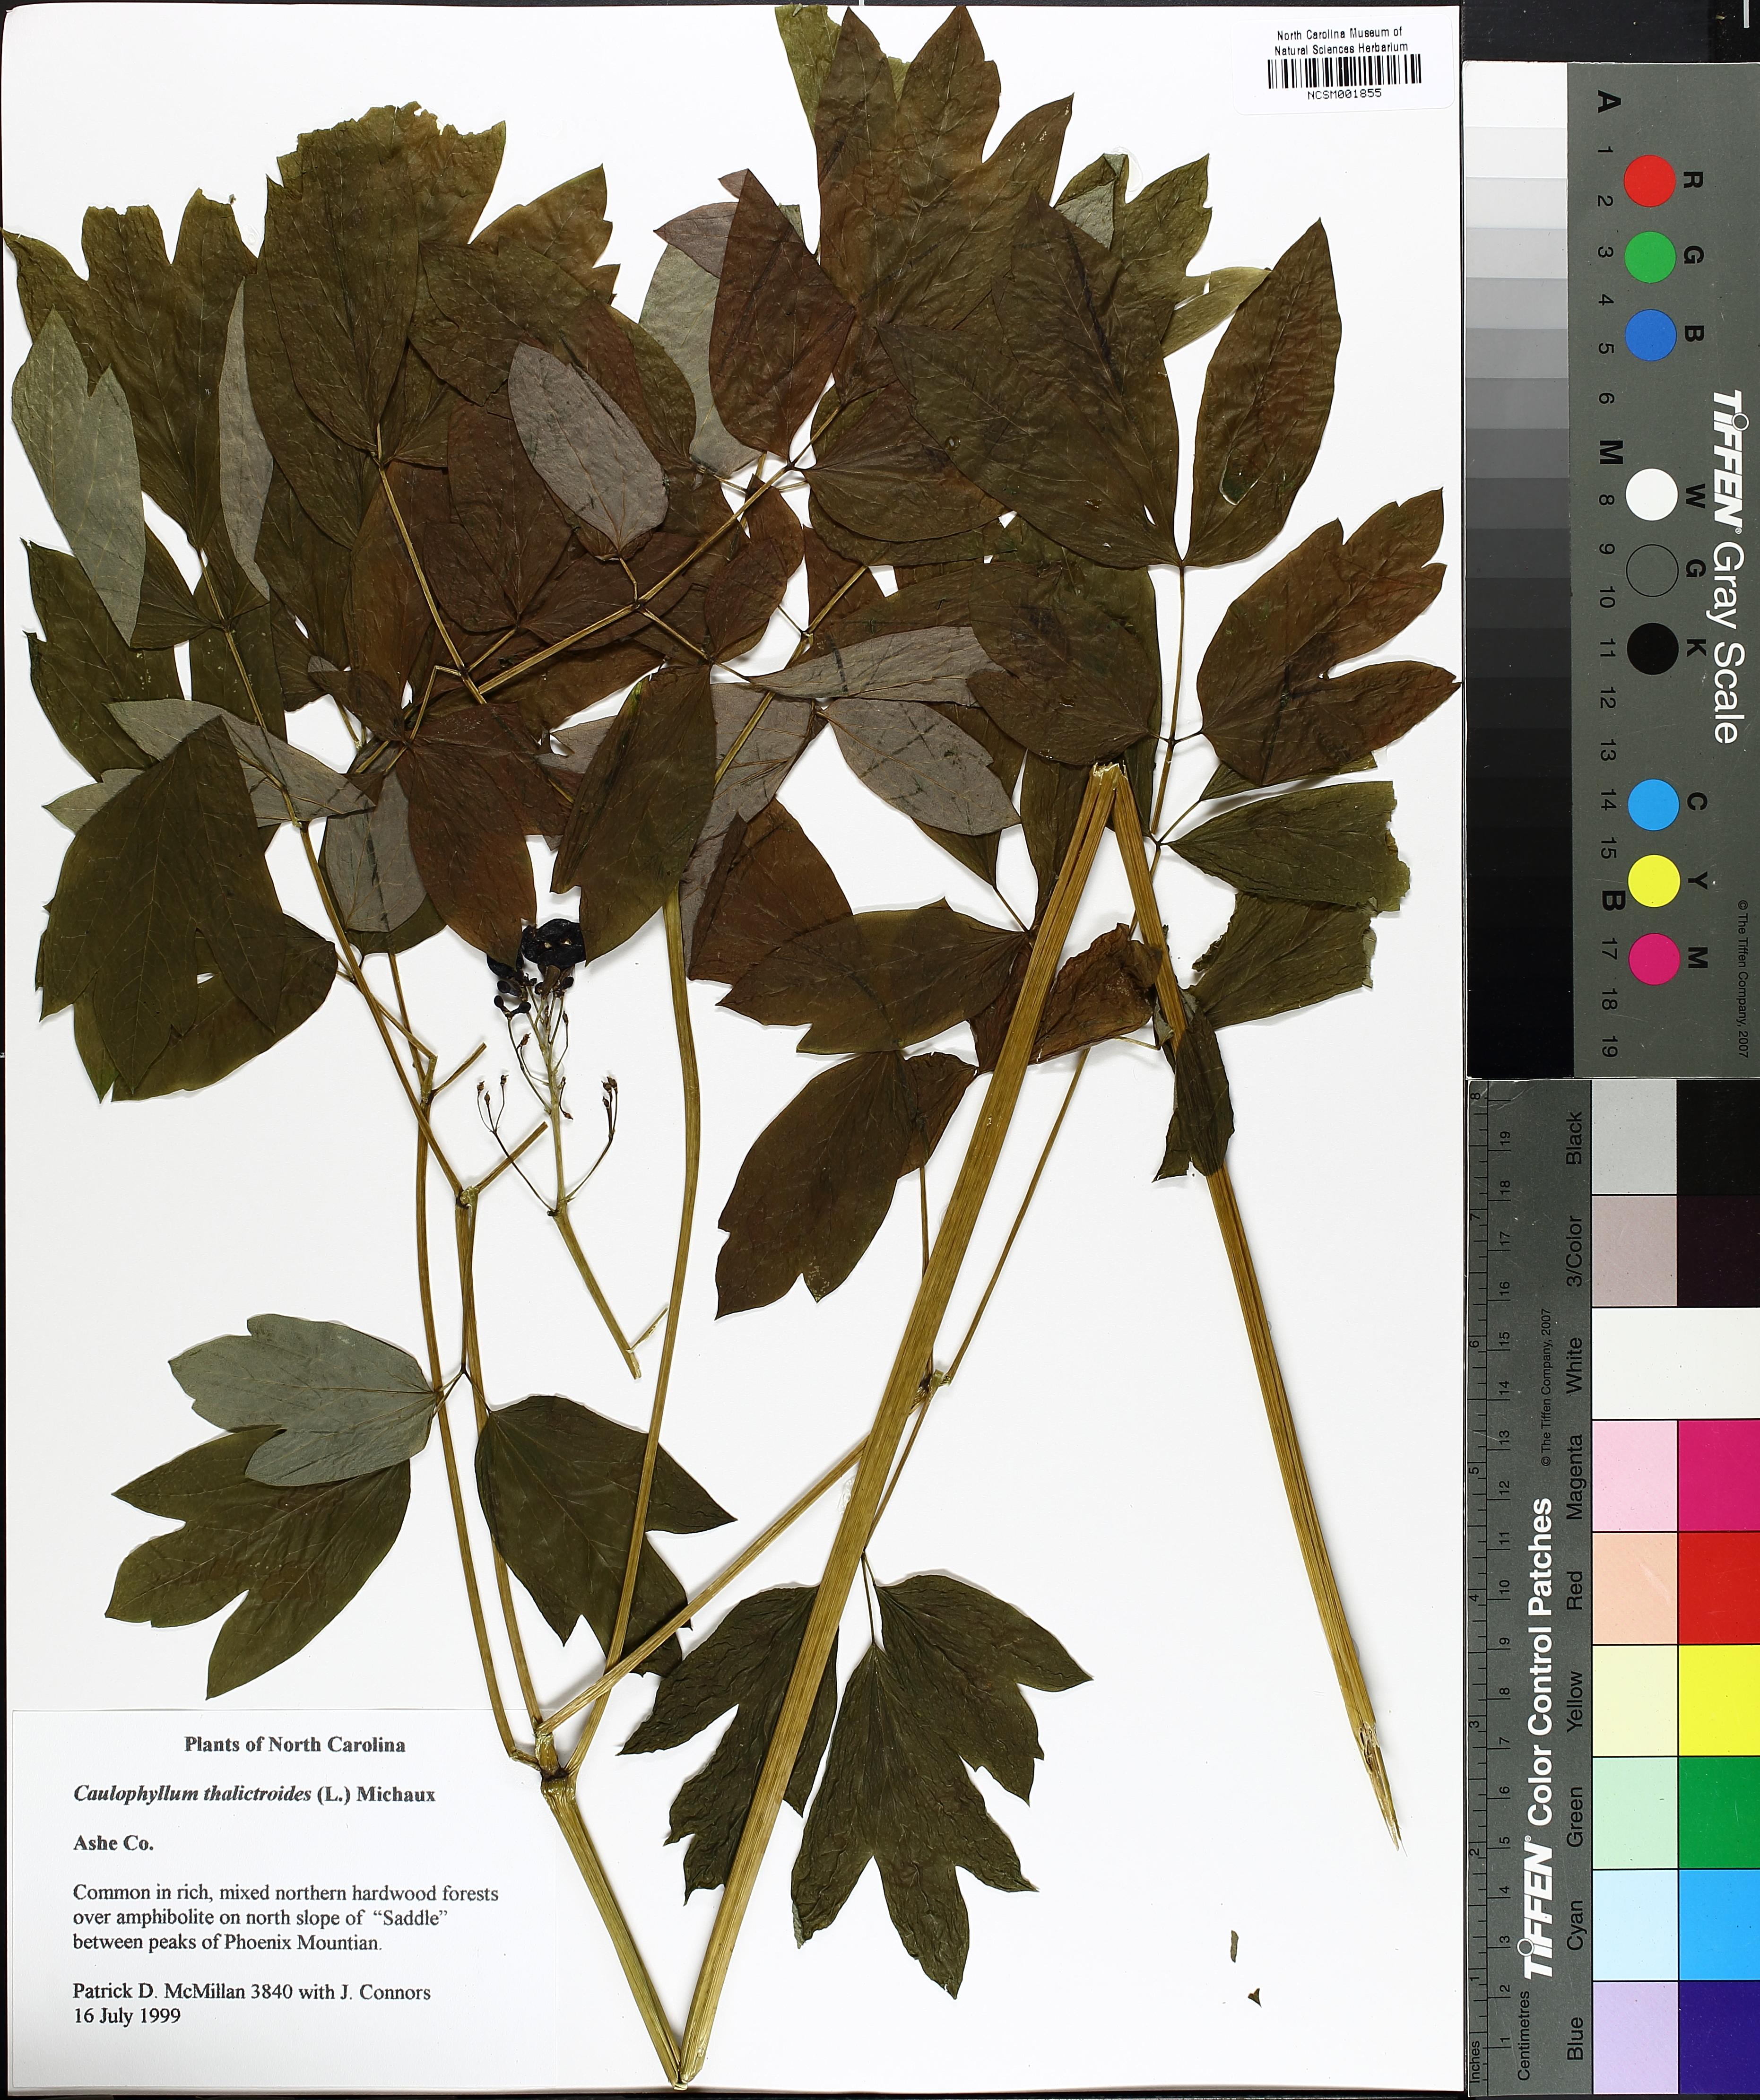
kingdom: Plantae
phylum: Tracheophyta
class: Magnoliopsida
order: Ranunculales
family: Berberidaceae
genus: Caulophyllum
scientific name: Caulophyllum thalictroides
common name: Blue cohosh
